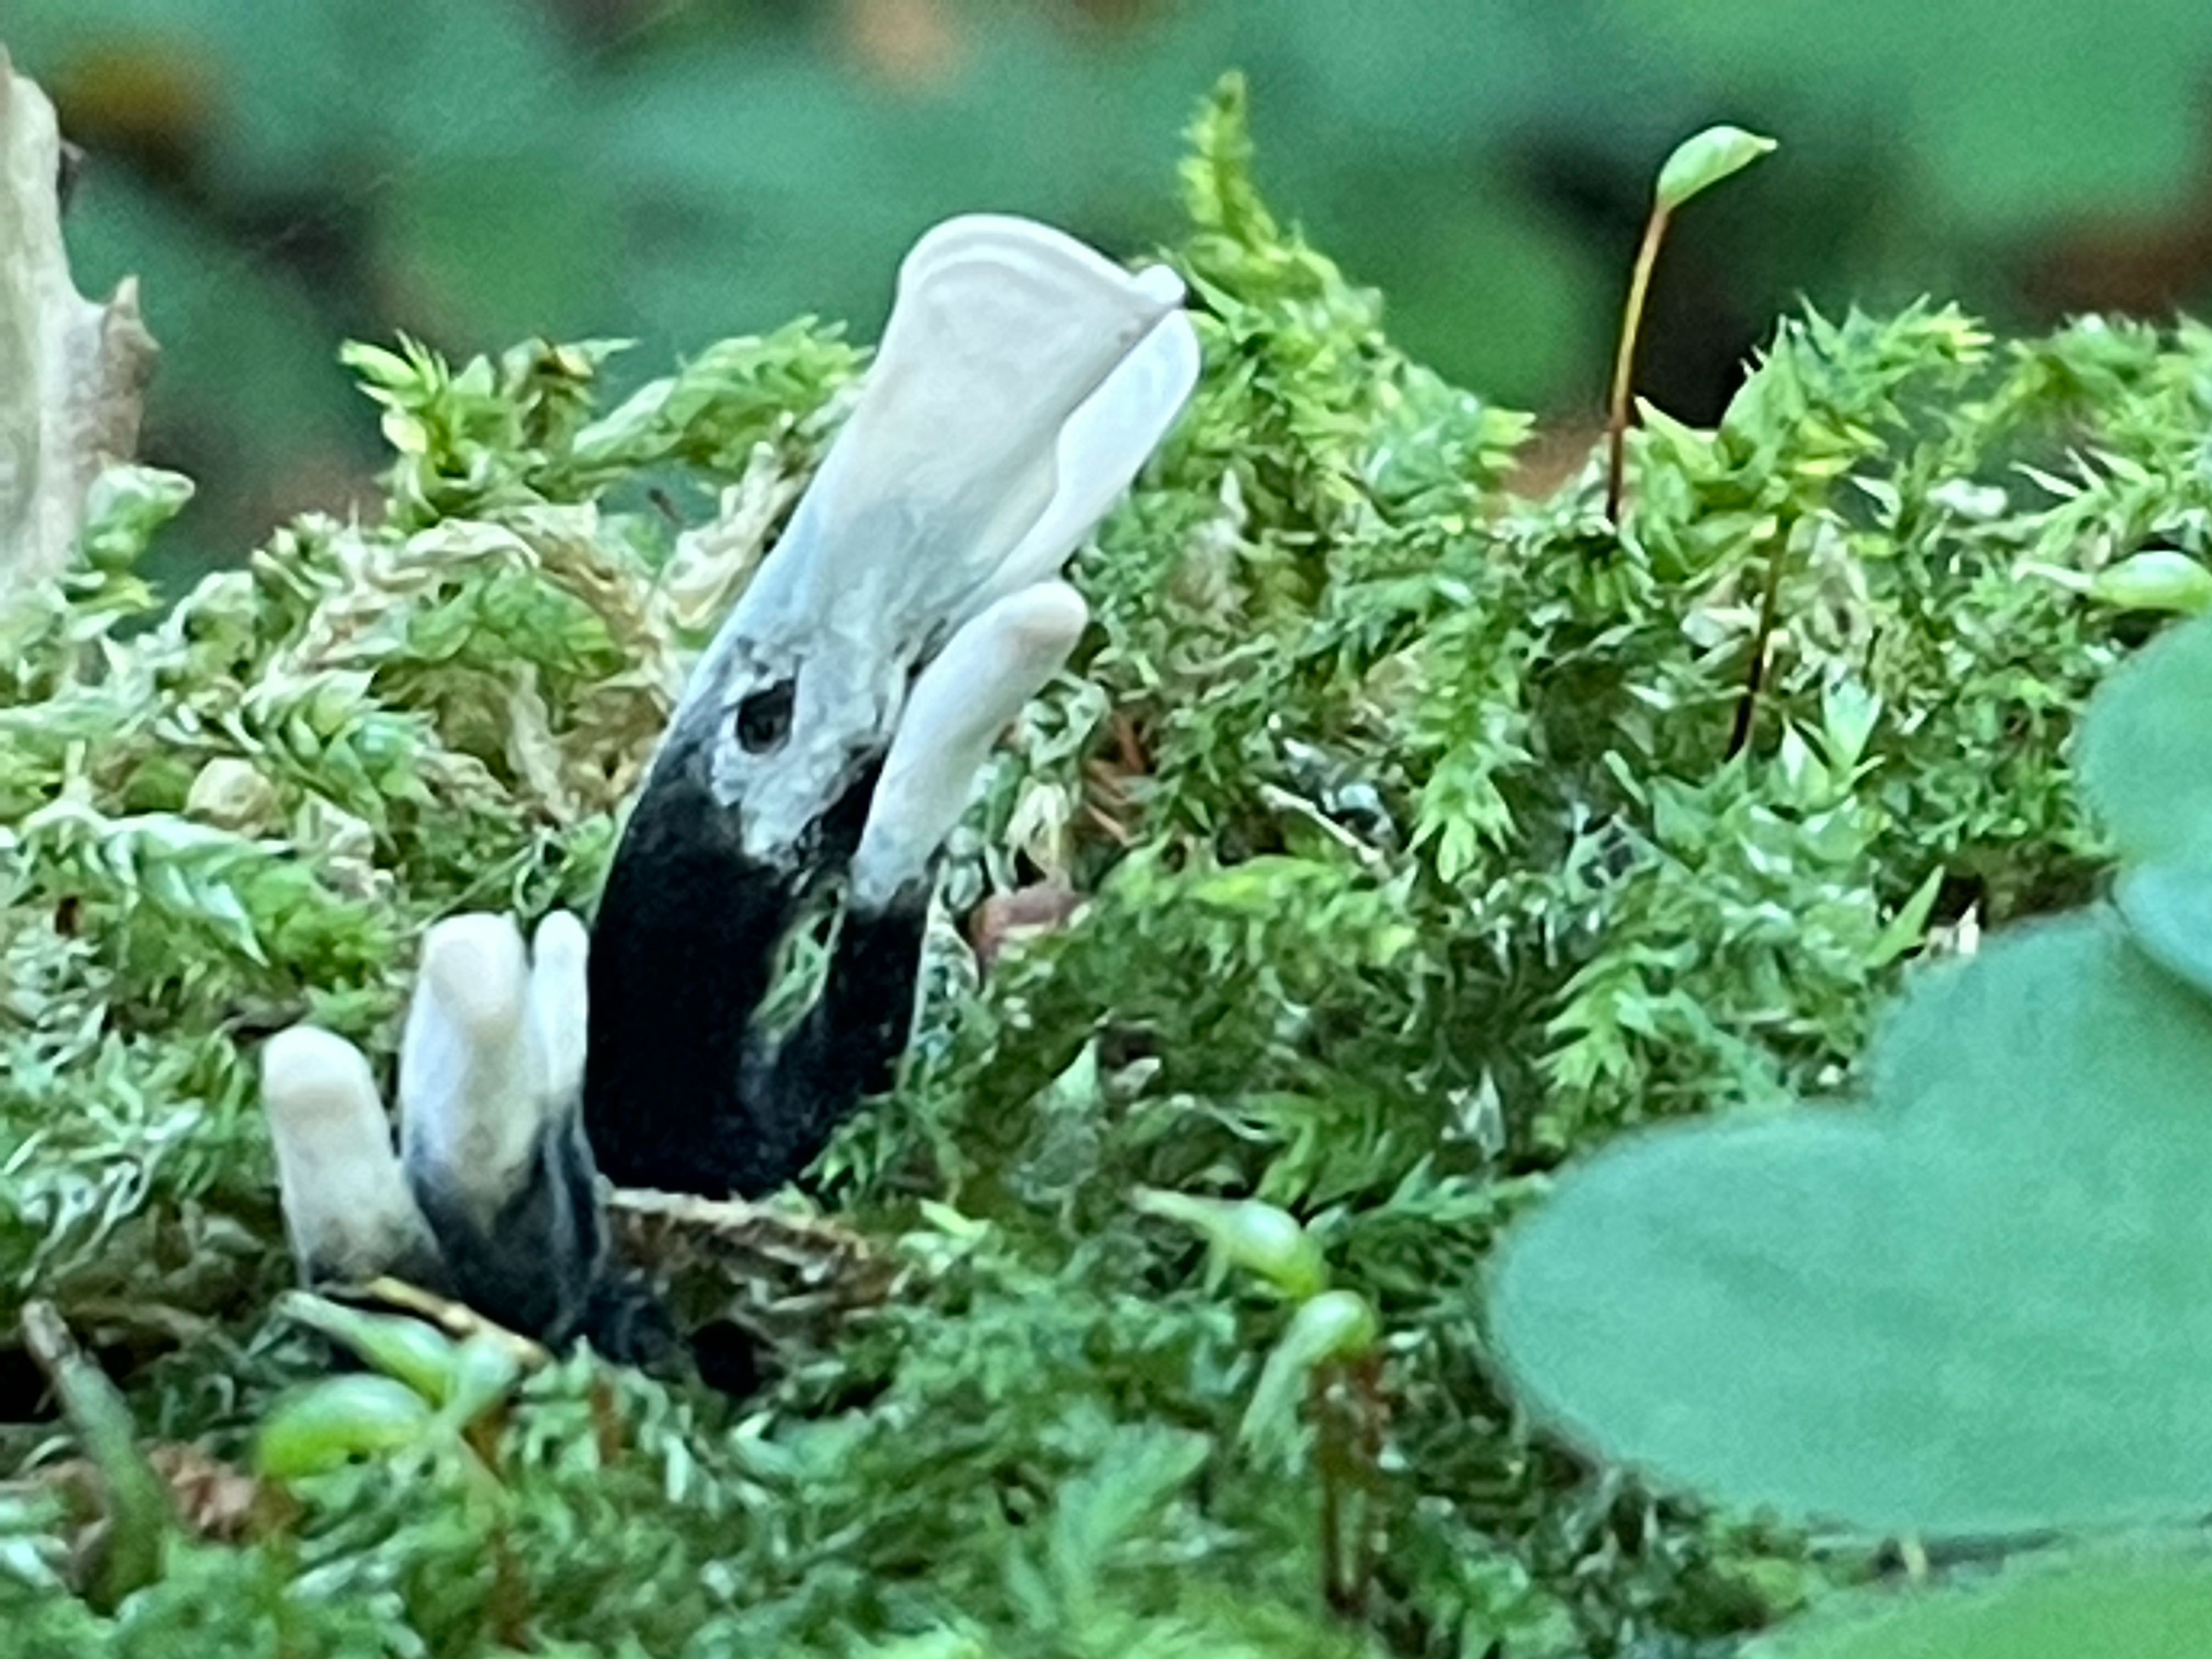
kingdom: Fungi
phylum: Ascomycota
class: Sordariomycetes
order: Xylariales
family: Xylariaceae
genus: Xylaria
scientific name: Xylaria hypoxylon
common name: grenet stødsvamp
